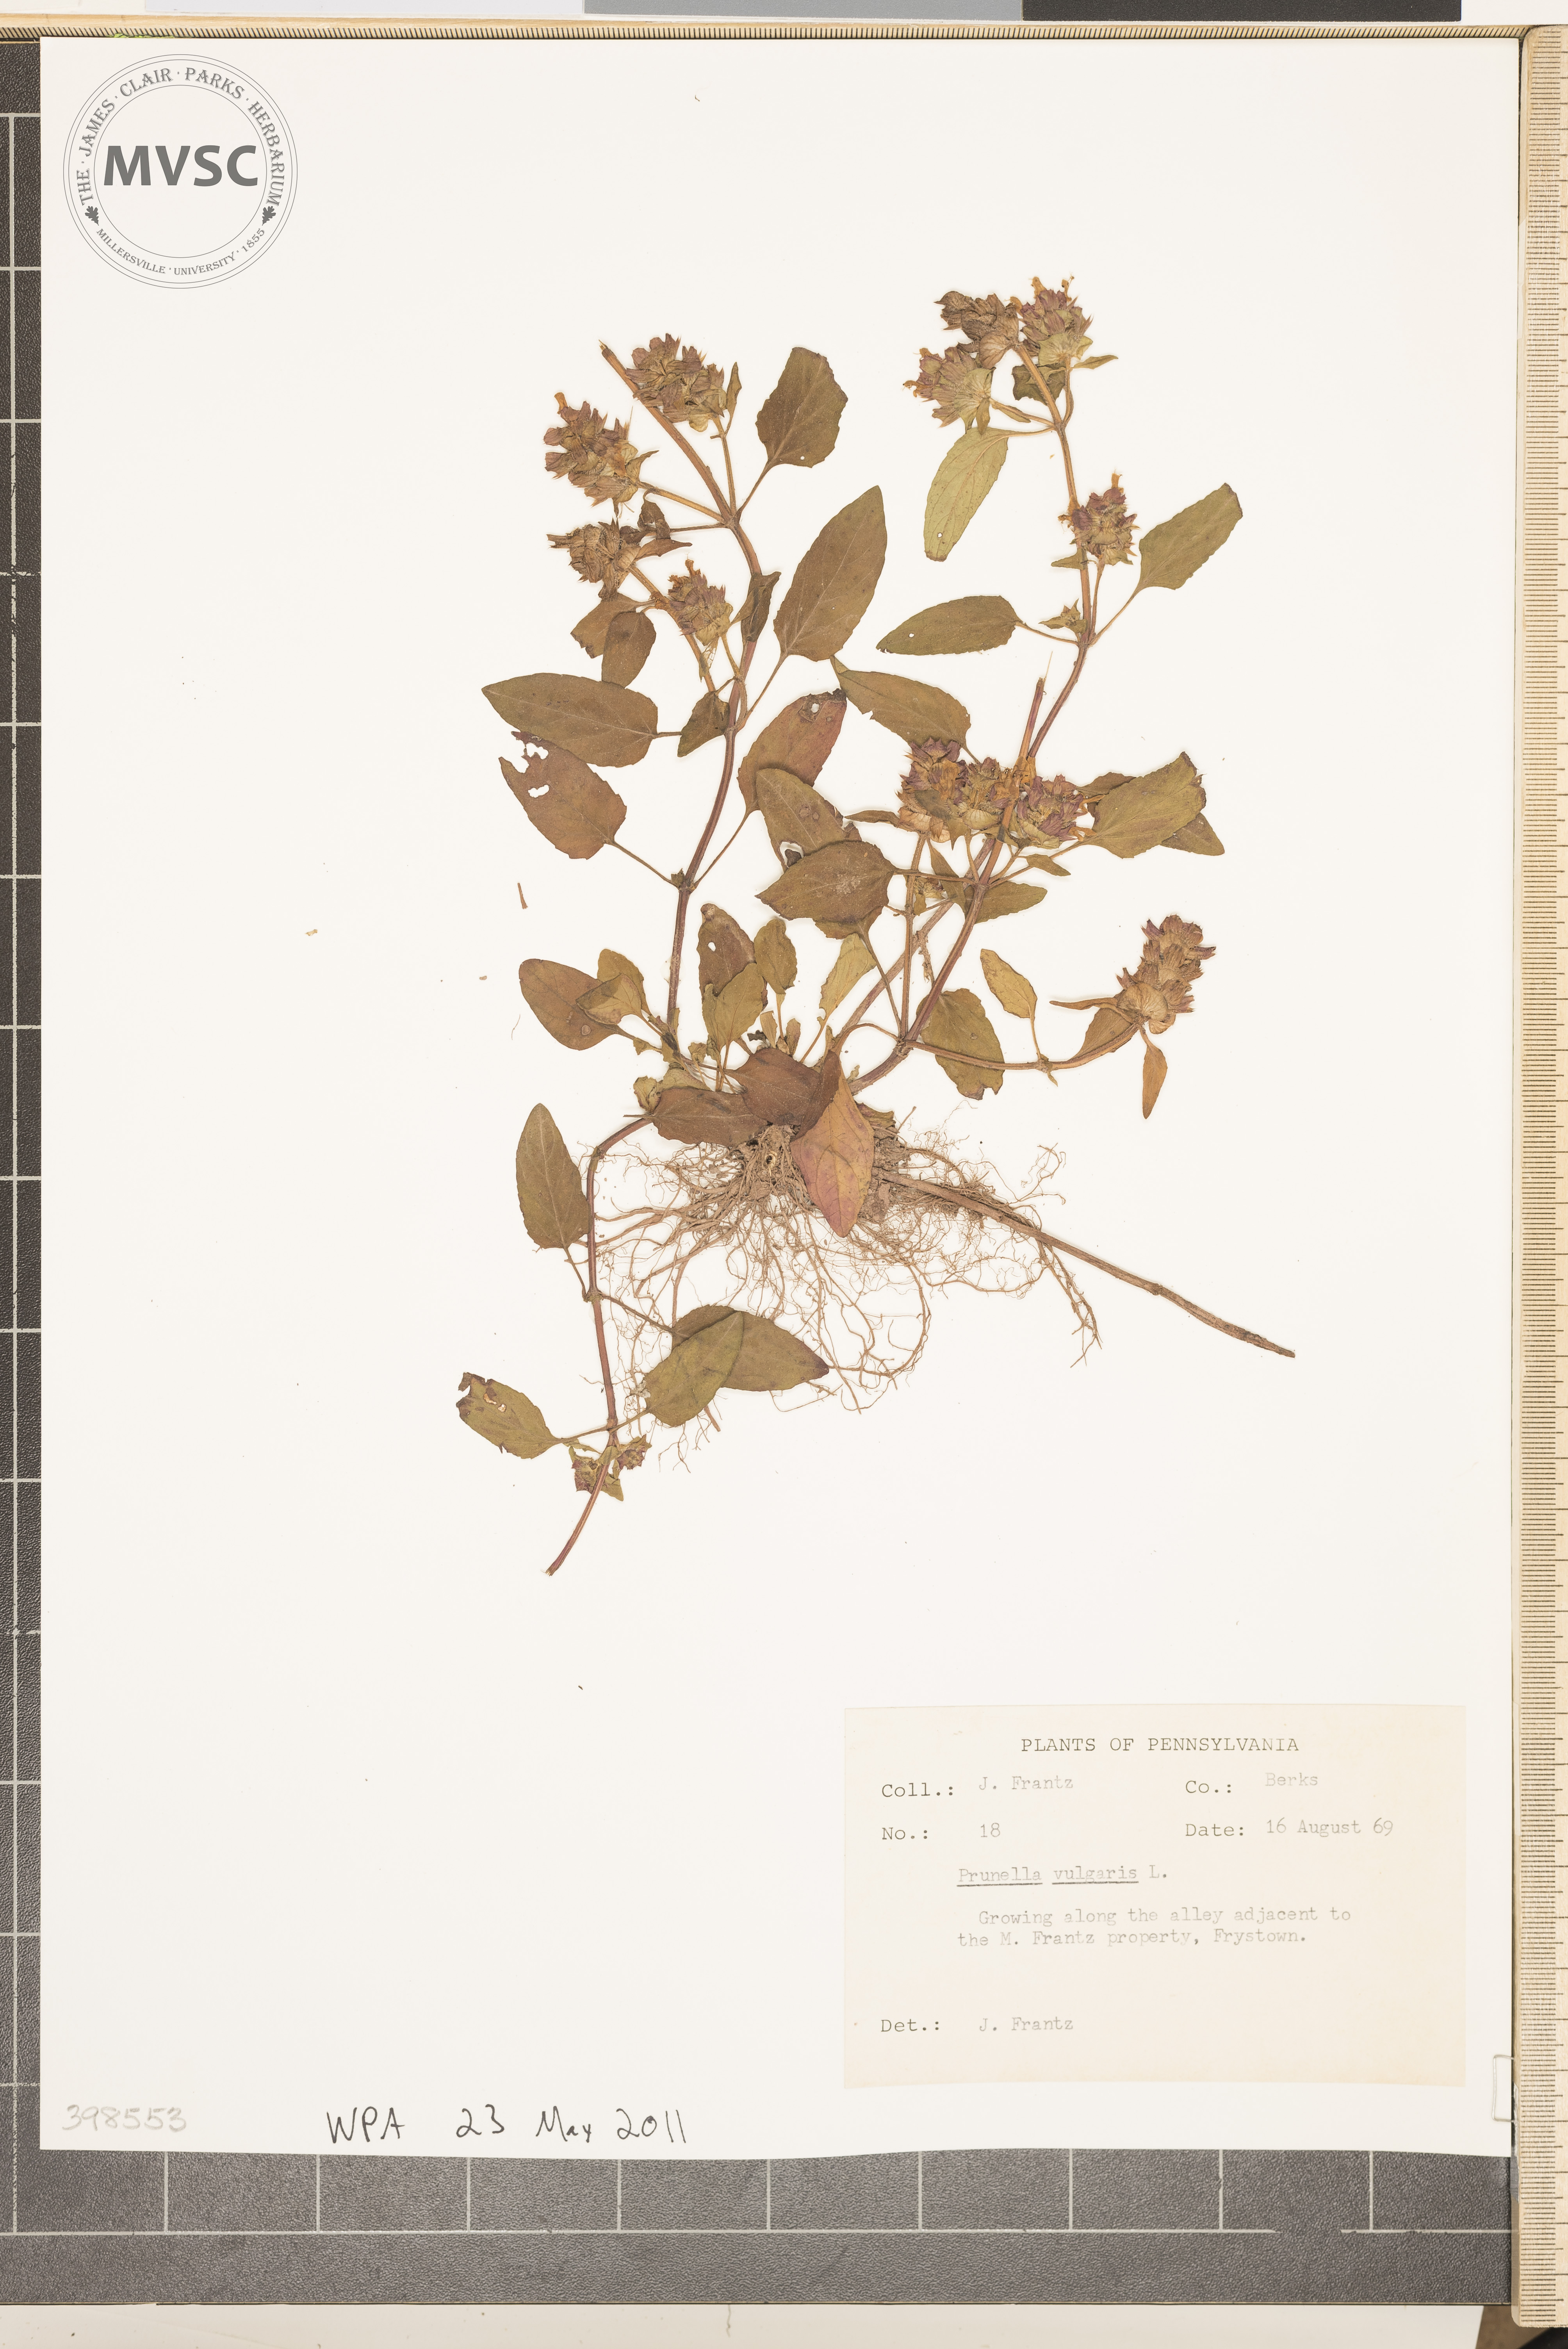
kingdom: Plantae
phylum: Tracheophyta
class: Magnoliopsida
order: Lamiales
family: Lamiaceae
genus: Prunella
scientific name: Prunella vulgaris
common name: Heal-all
